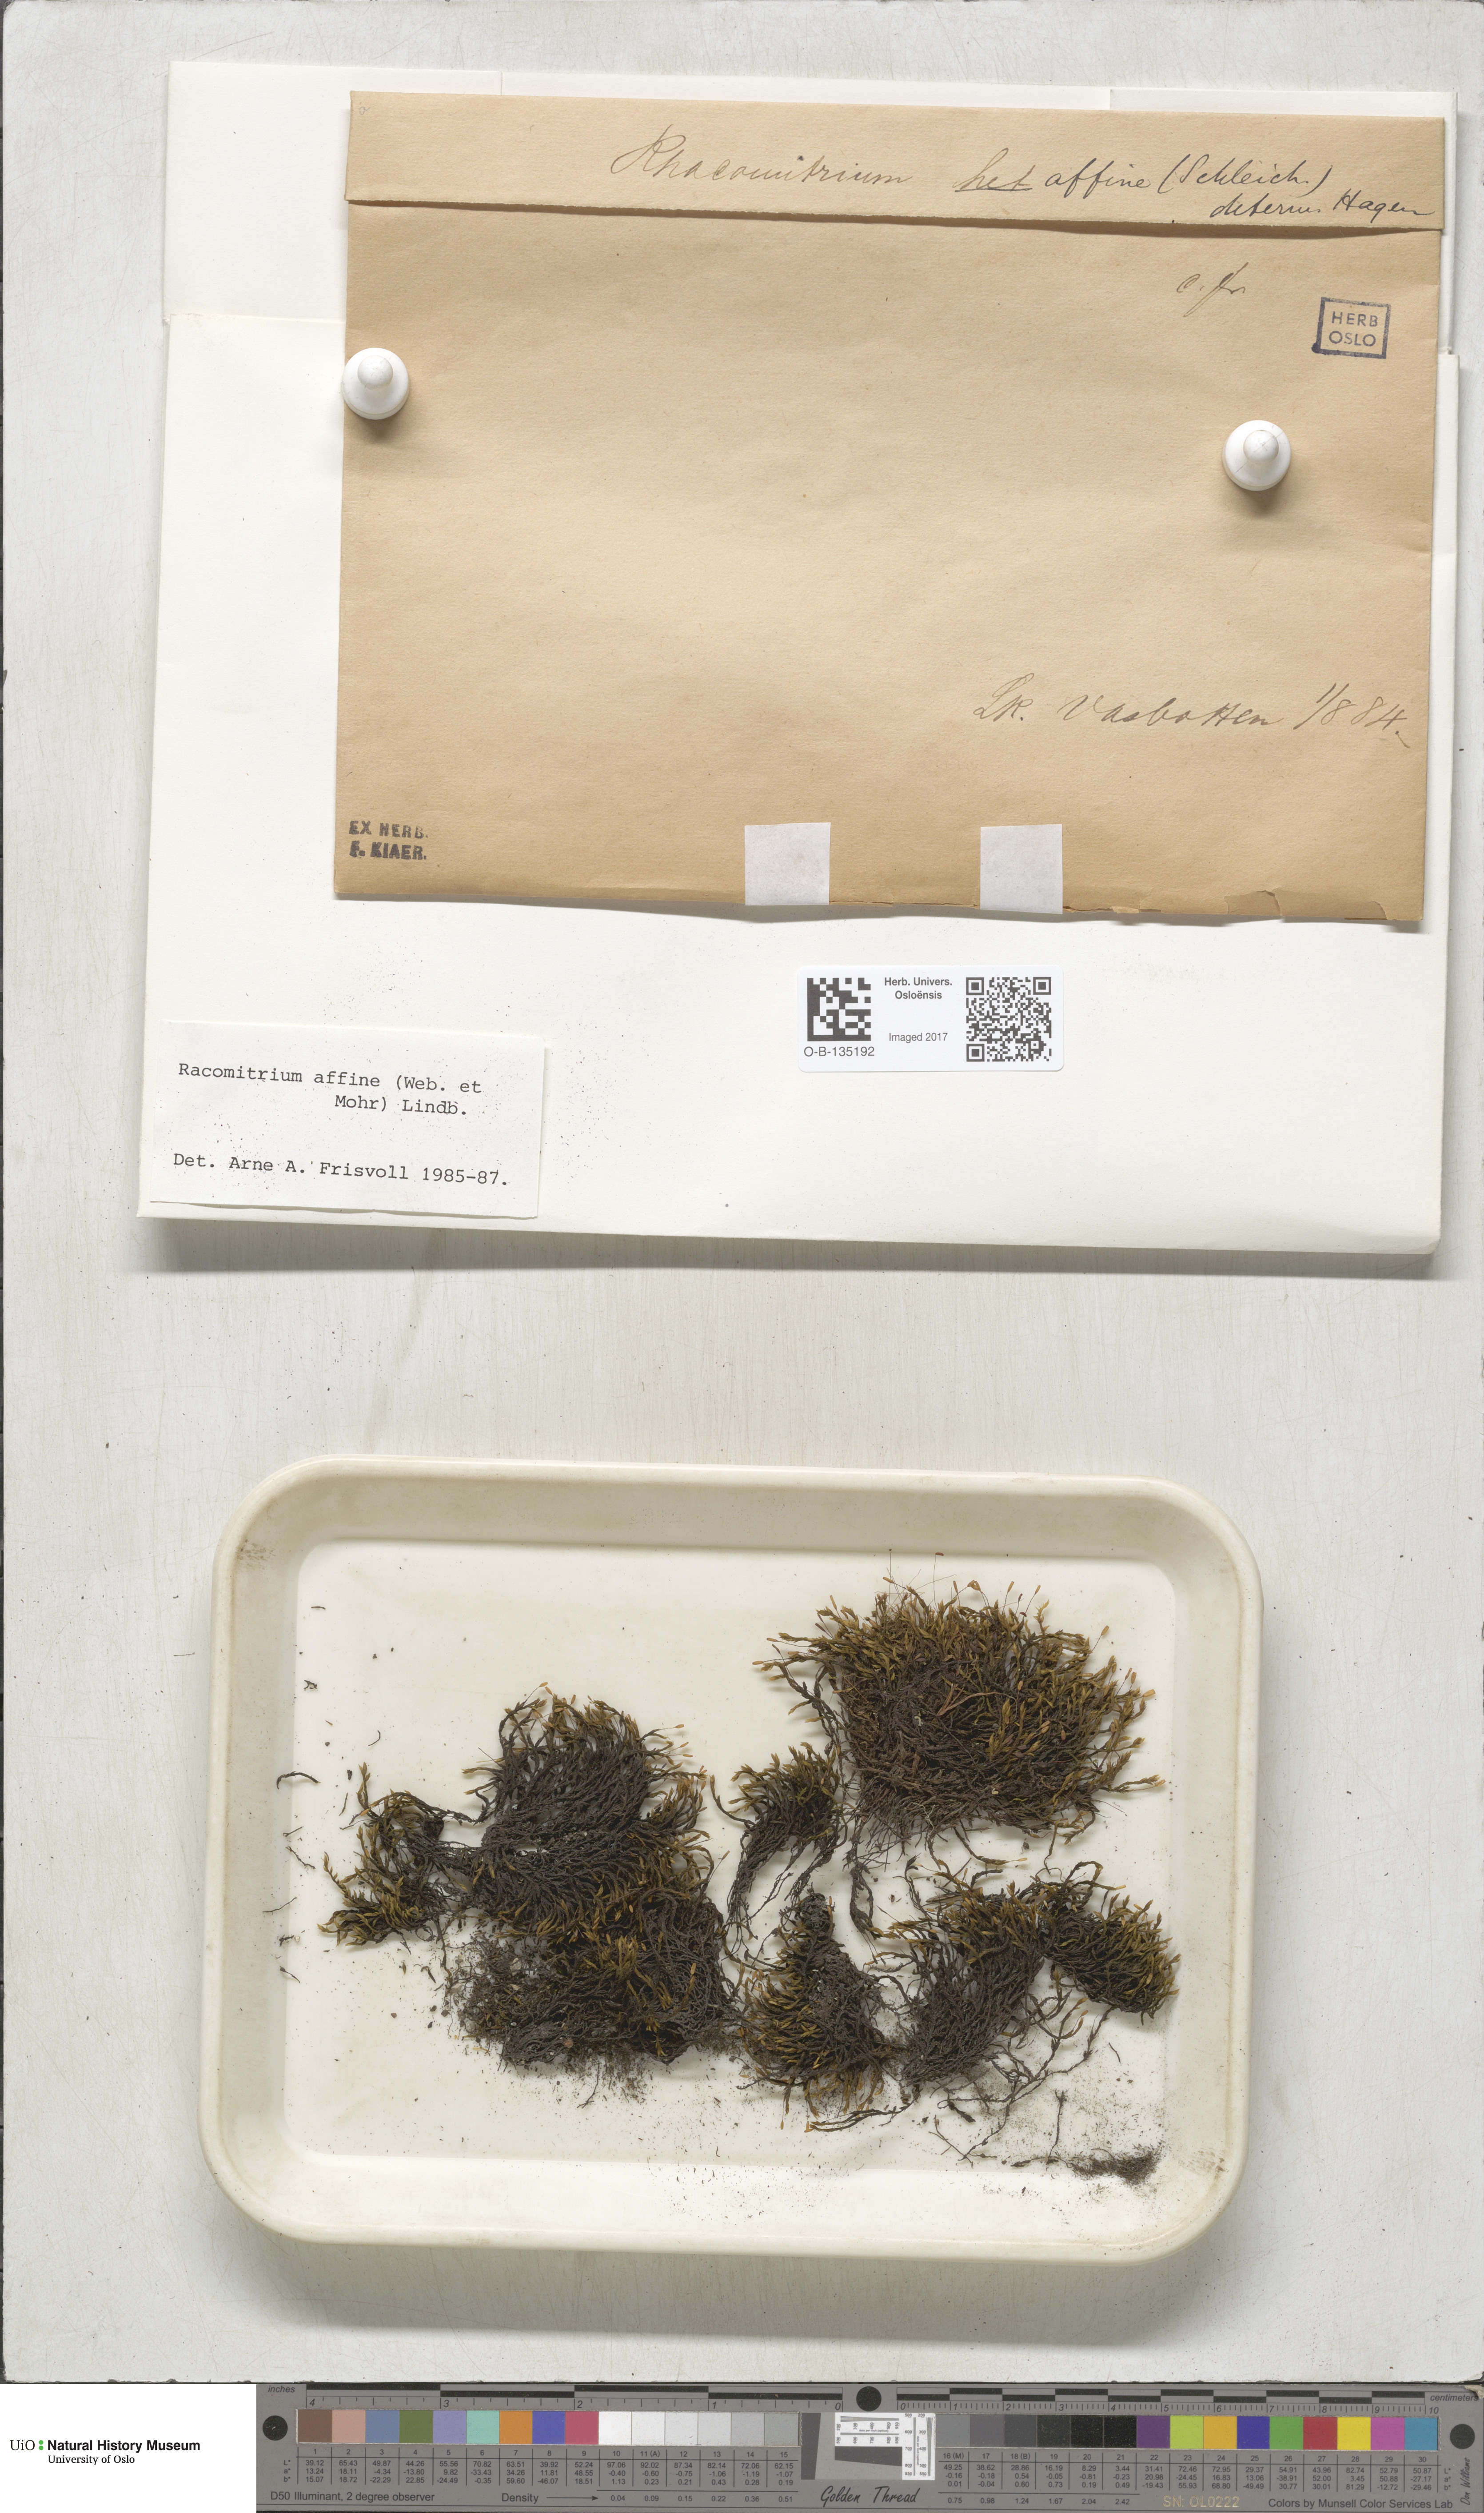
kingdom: Plantae
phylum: Bryophyta
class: Bryopsida
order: Grimmiales
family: Grimmiaceae
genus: Bucklandiella
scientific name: Bucklandiella affinis
